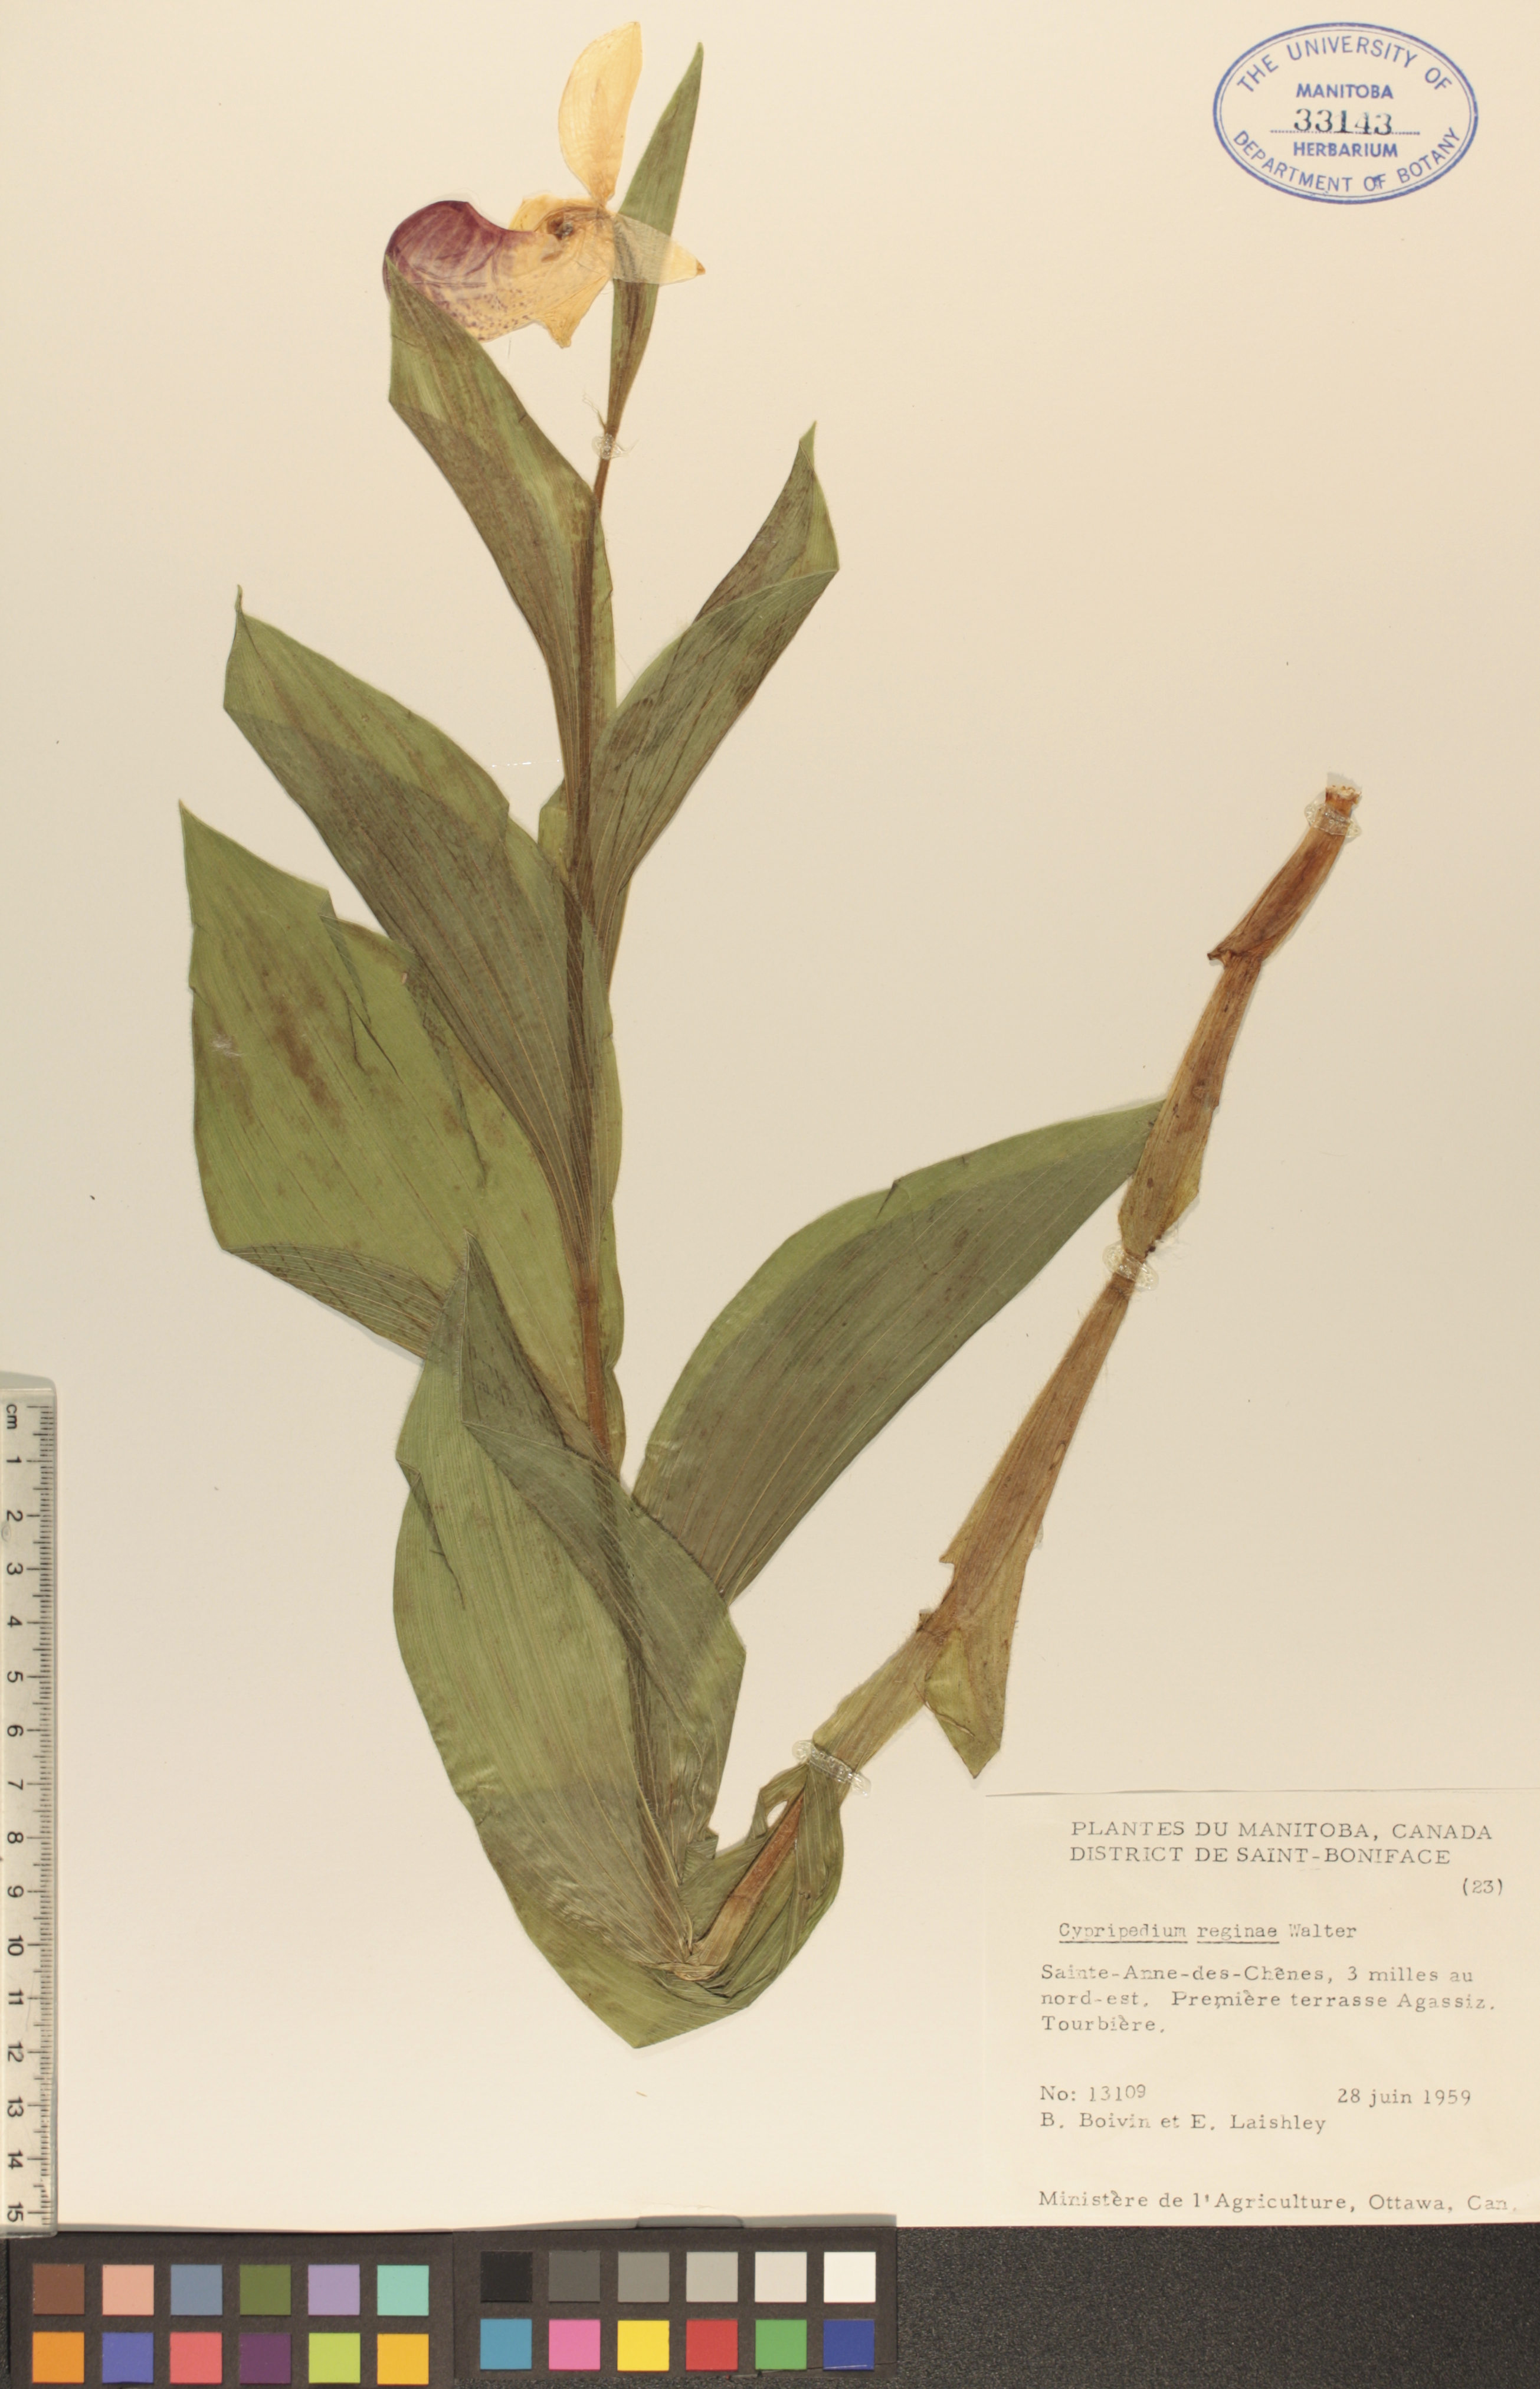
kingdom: Plantae
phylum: Tracheophyta
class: Liliopsida
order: Asparagales
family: Orchidaceae
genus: Cypripedium
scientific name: Cypripedium reginae
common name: Queen lady's-slipper
